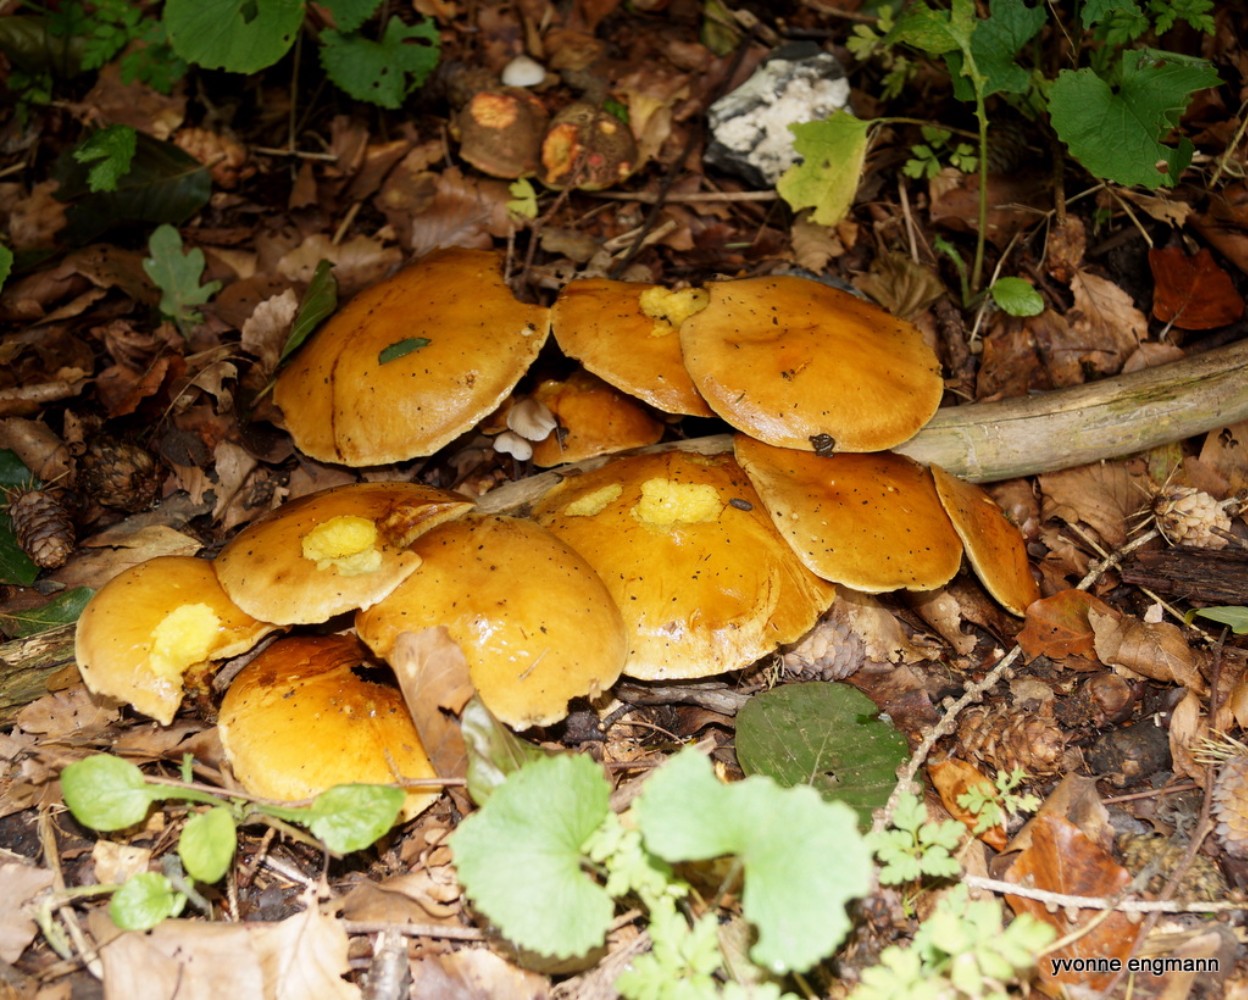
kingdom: Fungi
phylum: Basidiomycota
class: Agaricomycetes
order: Boletales
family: Suillaceae
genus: Suillus
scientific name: Suillus grevillei
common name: lærke-slimrørhat
